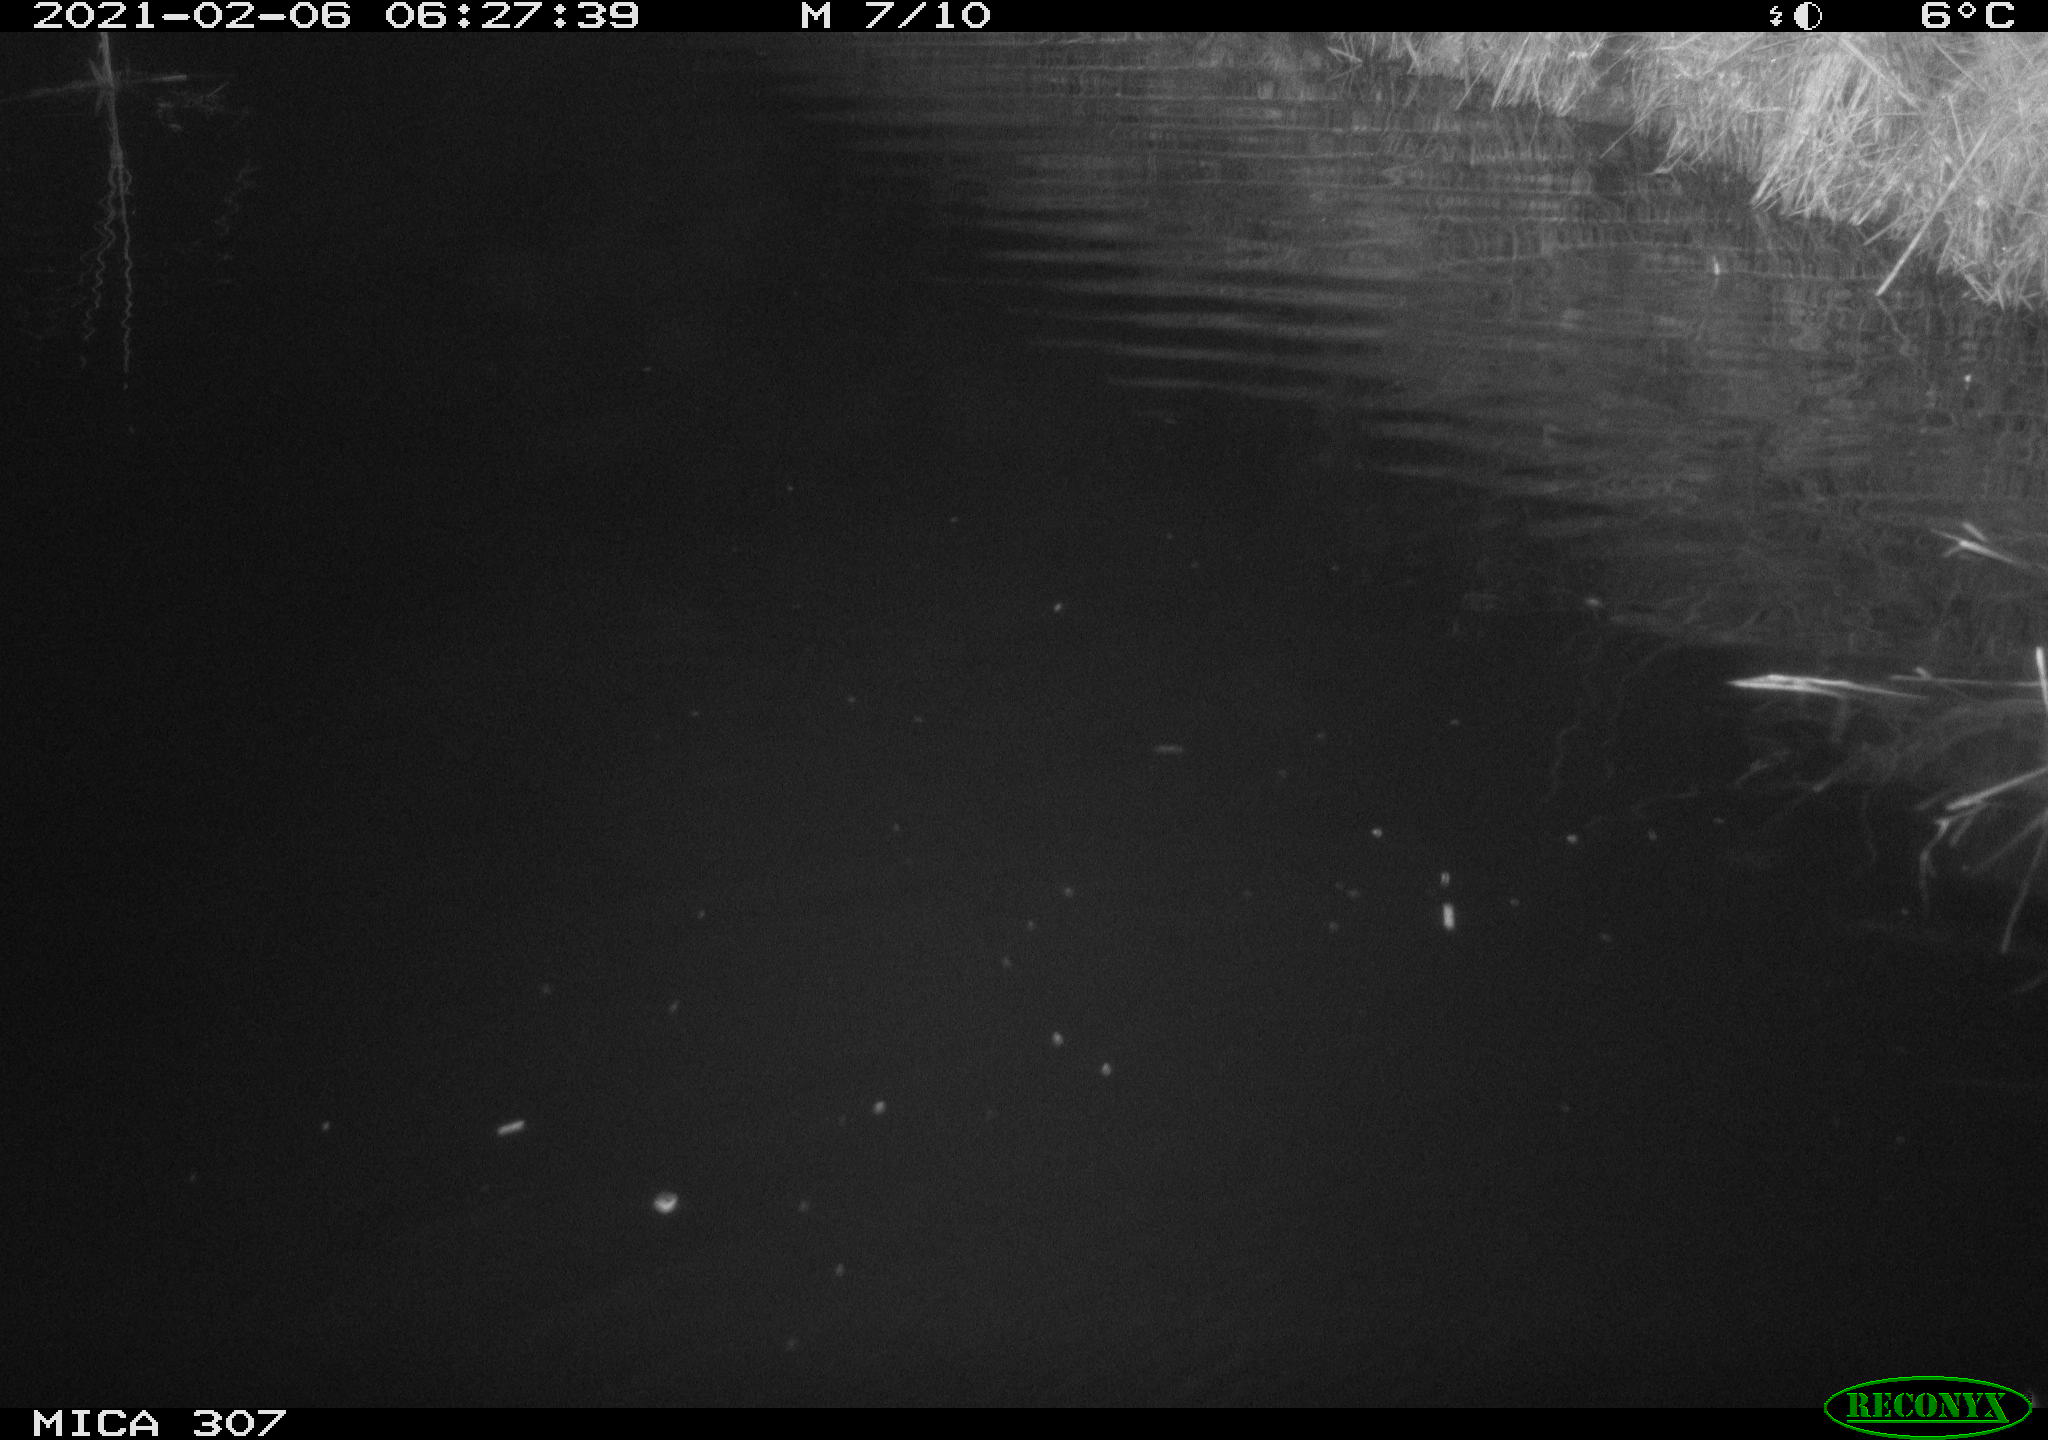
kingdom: Animalia
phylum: Chordata
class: Mammalia
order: Rodentia
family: Cricetidae
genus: Ondatra
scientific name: Ondatra zibethicus
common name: Muskrat
